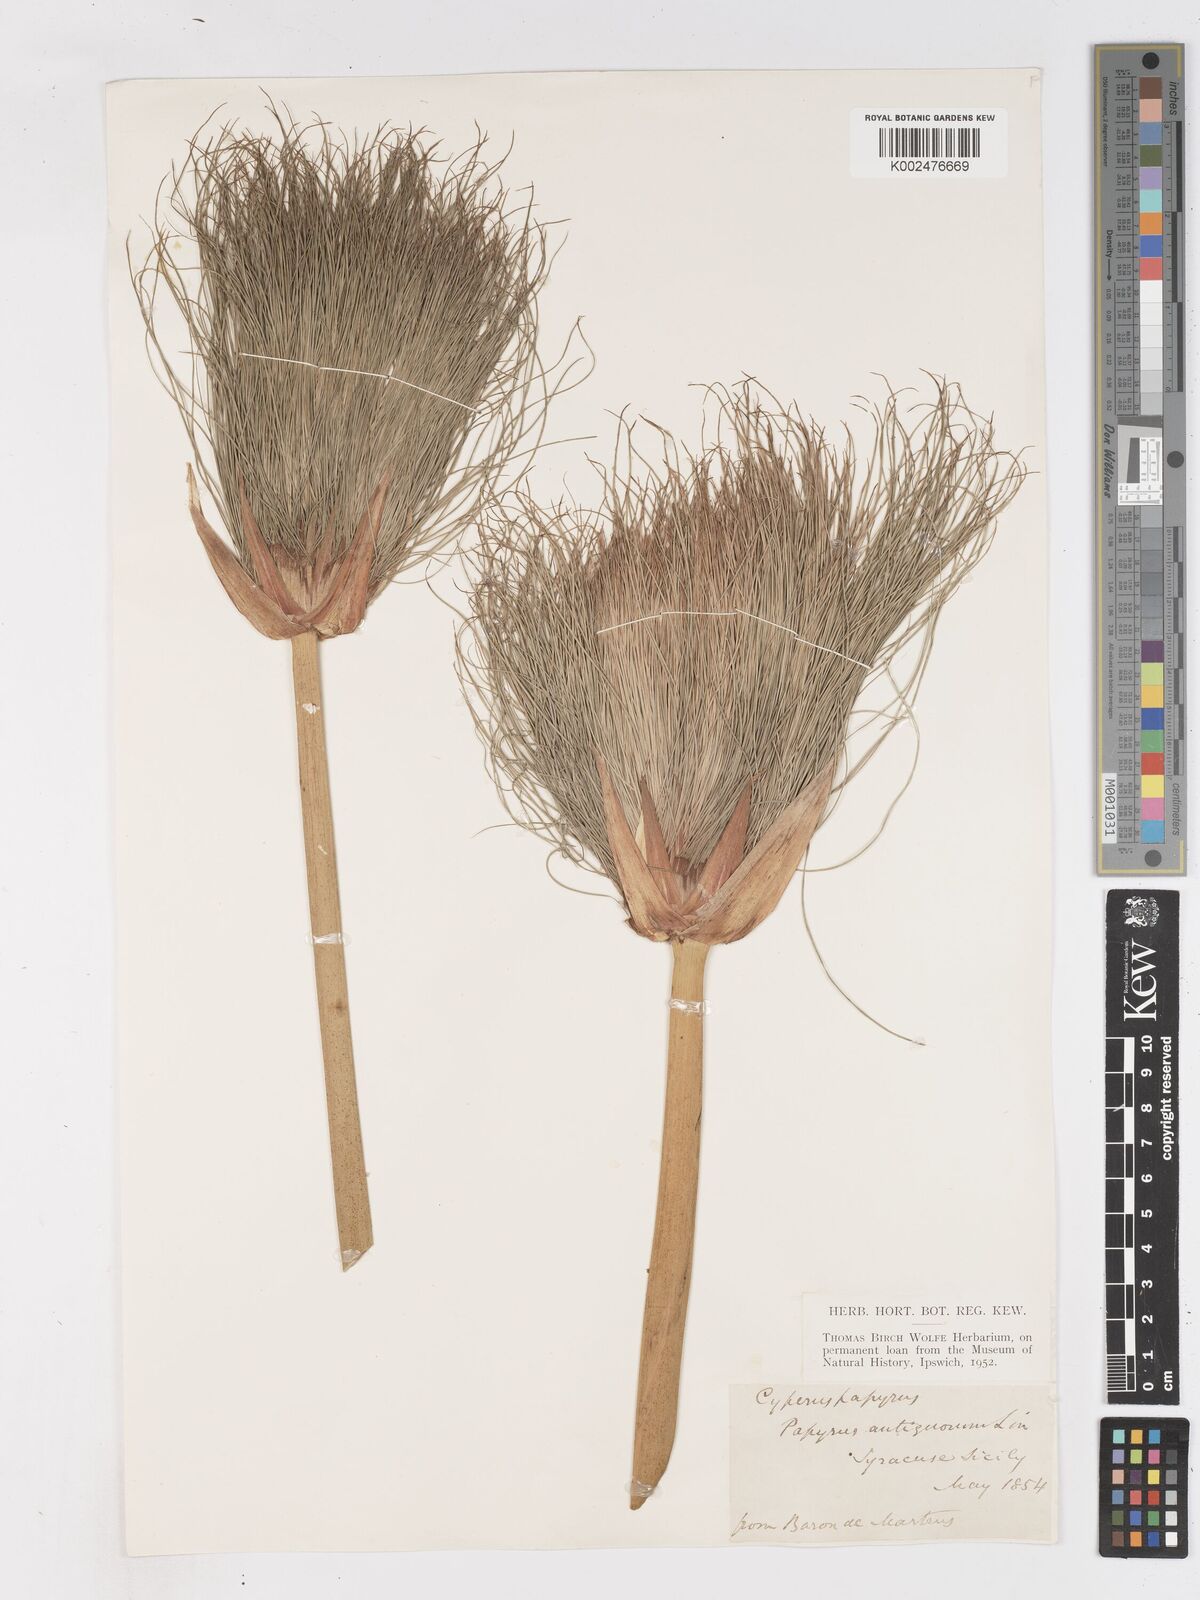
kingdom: Plantae
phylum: Tracheophyta
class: Liliopsida
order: Poales
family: Cyperaceae
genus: Cyperus
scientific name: Cyperus papyrus
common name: Papyrus
